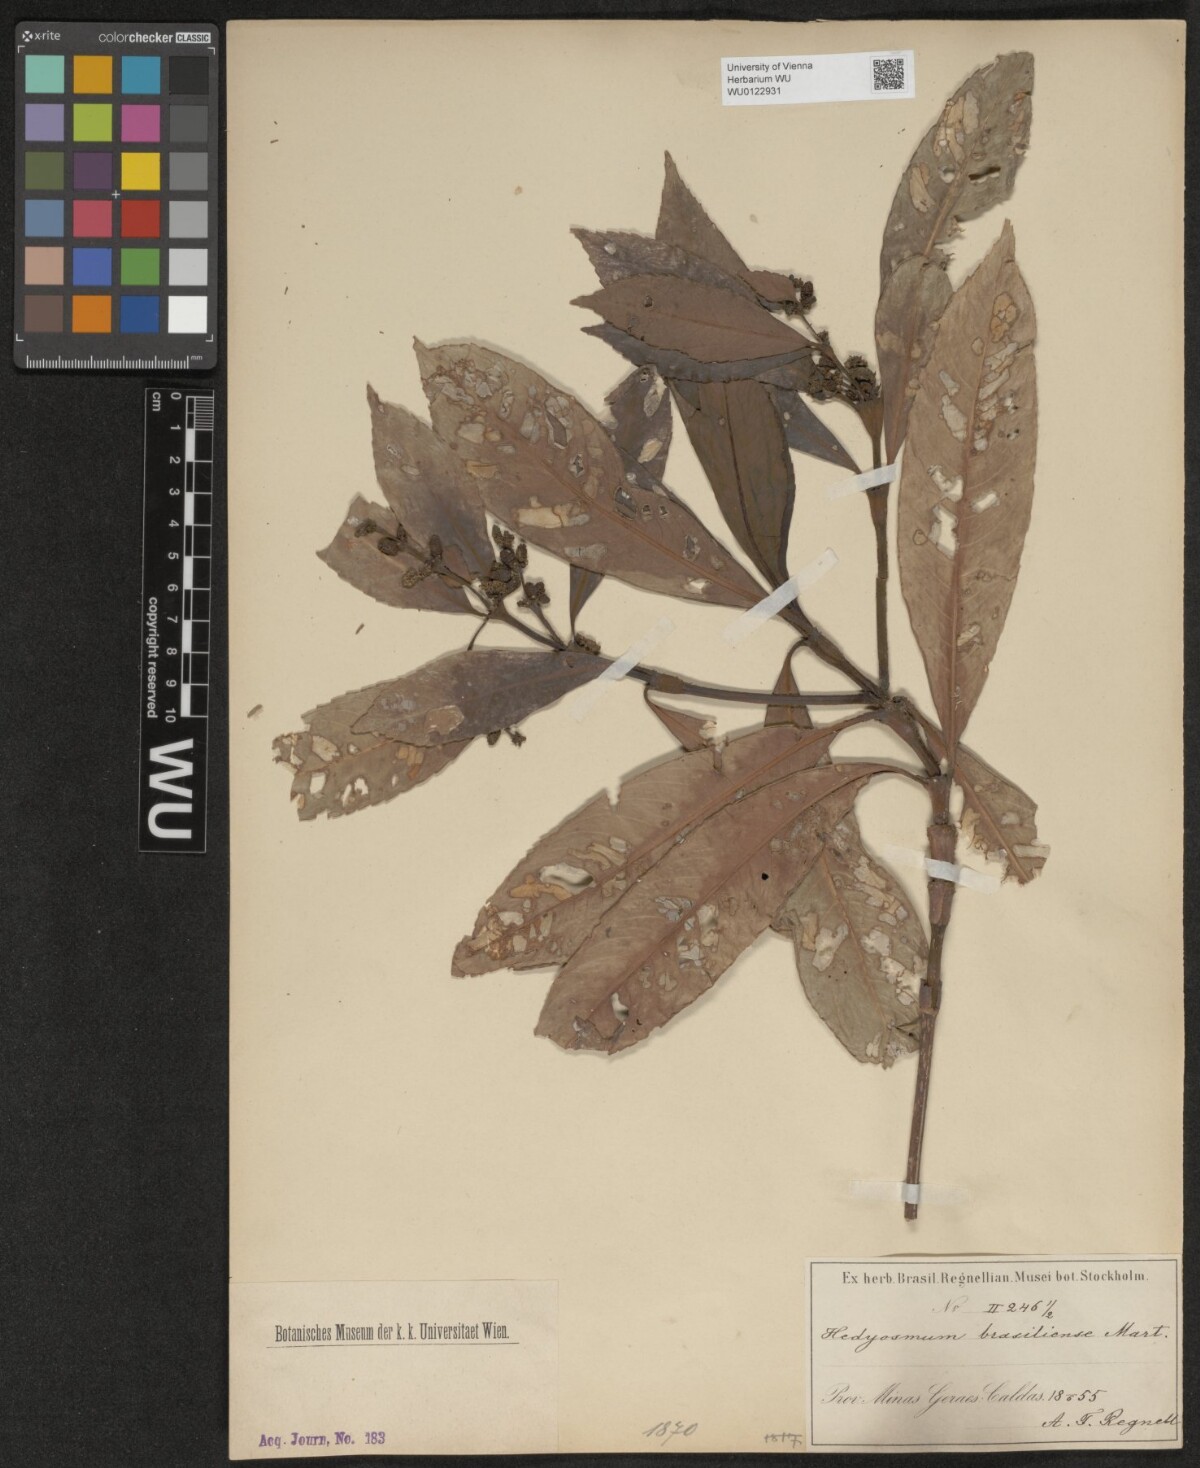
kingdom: Plantae
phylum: Tracheophyta
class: Magnoliopsida
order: Chloranthales
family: Chloranthaceae
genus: Hedyosmum
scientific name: Hedyosmum brasiliense
